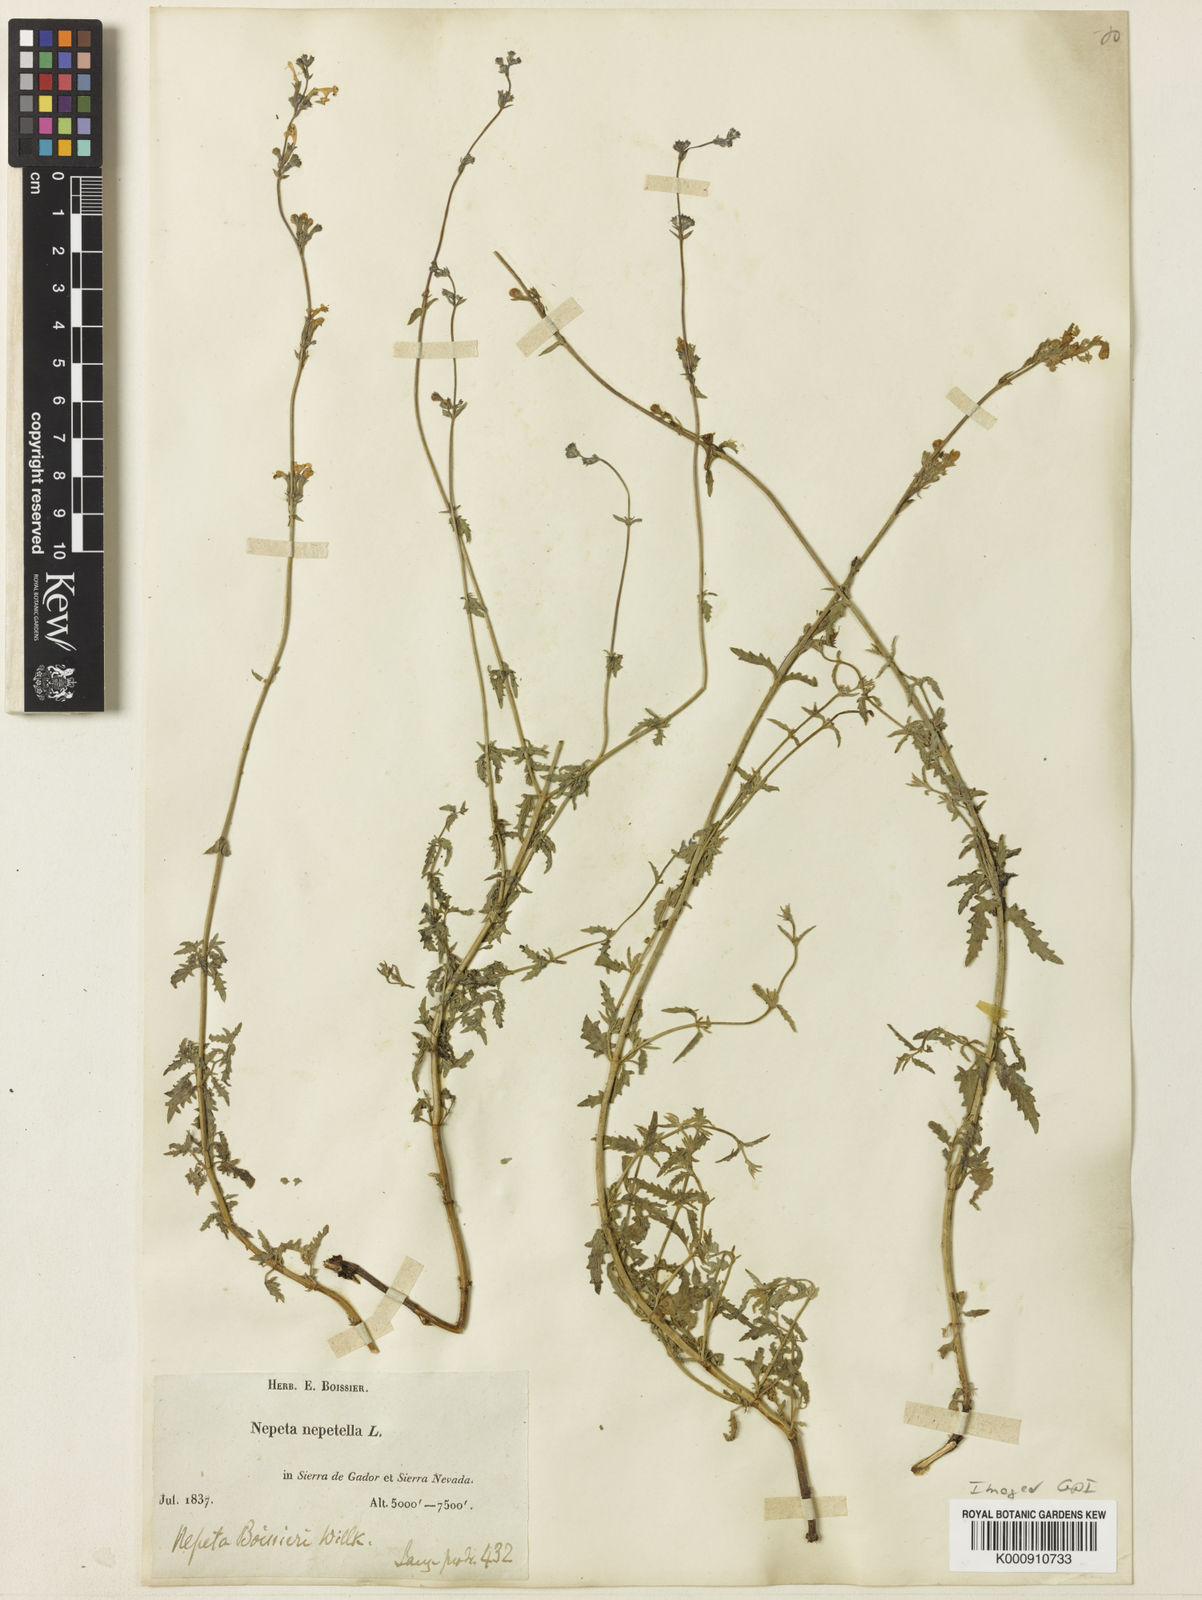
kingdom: Plantae
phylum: Tracheophyta
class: Magnoliopsida
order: Lamiales
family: Lamiaceae
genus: Nepeta
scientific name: Nepeta boissieri
